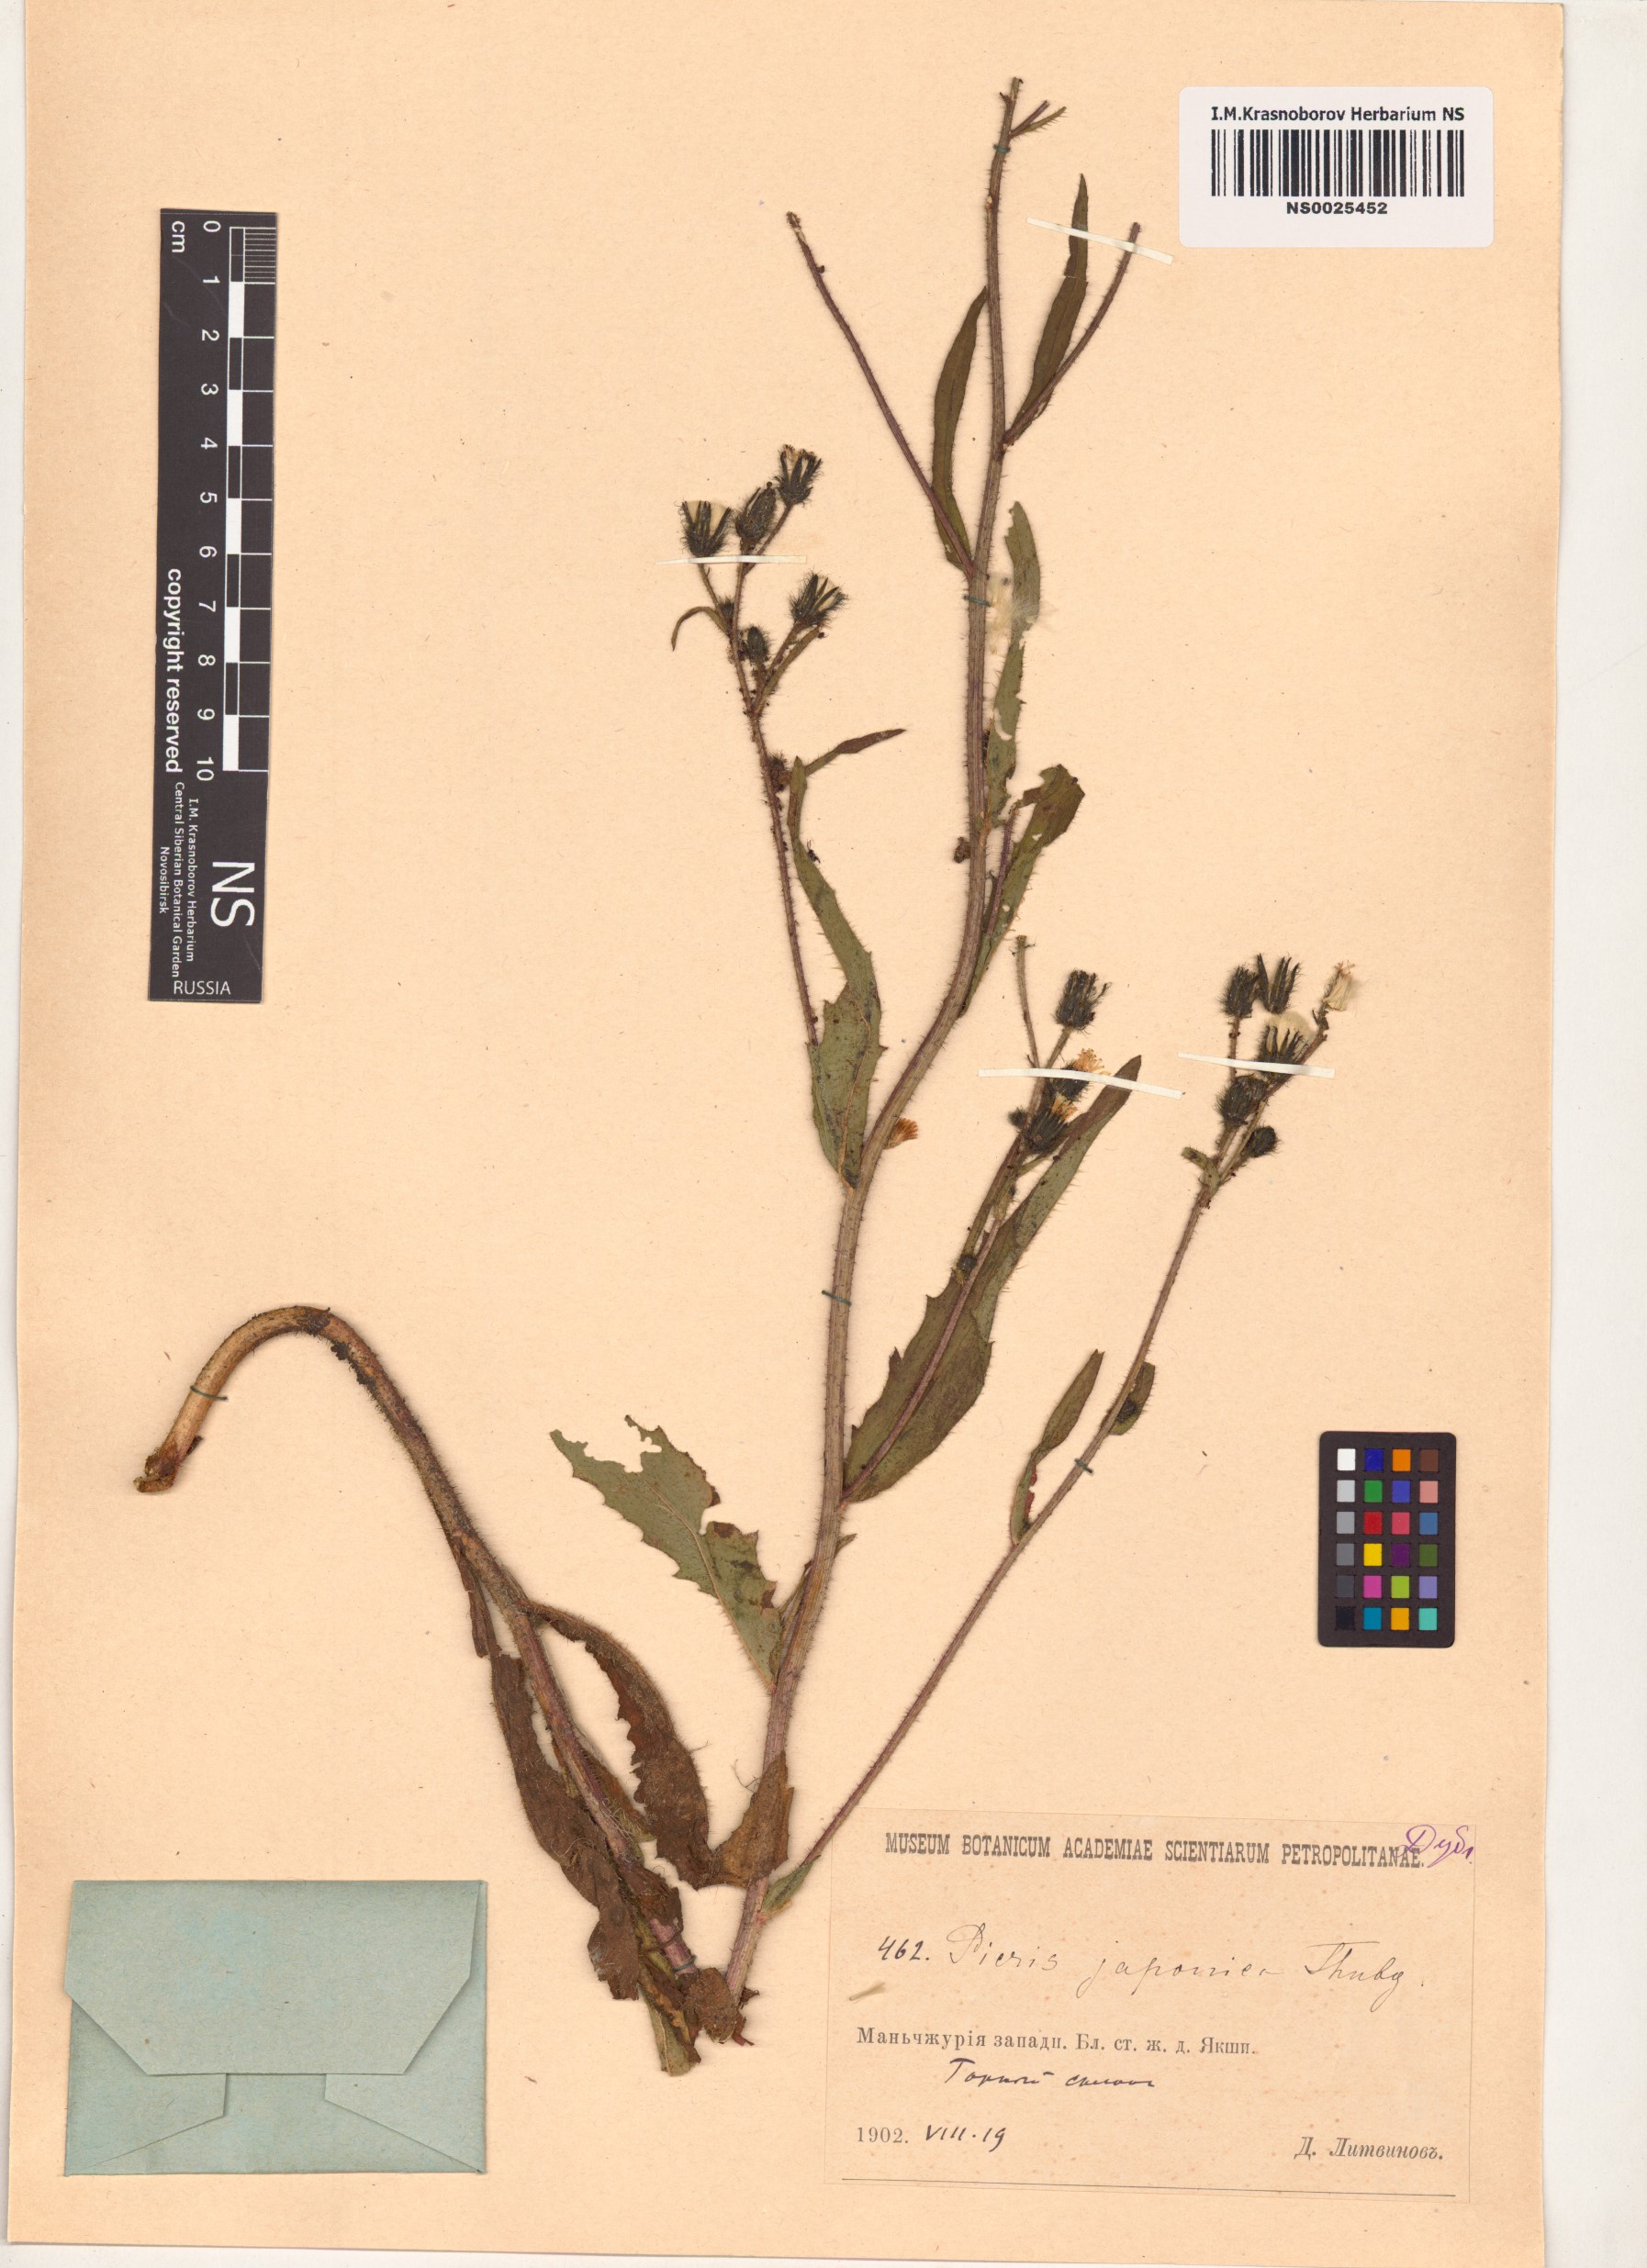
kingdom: Plantae
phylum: Tracheophyta
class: Magnoliopsida
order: Asterales
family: Asteraceae
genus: Picris
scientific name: Picris japonica
